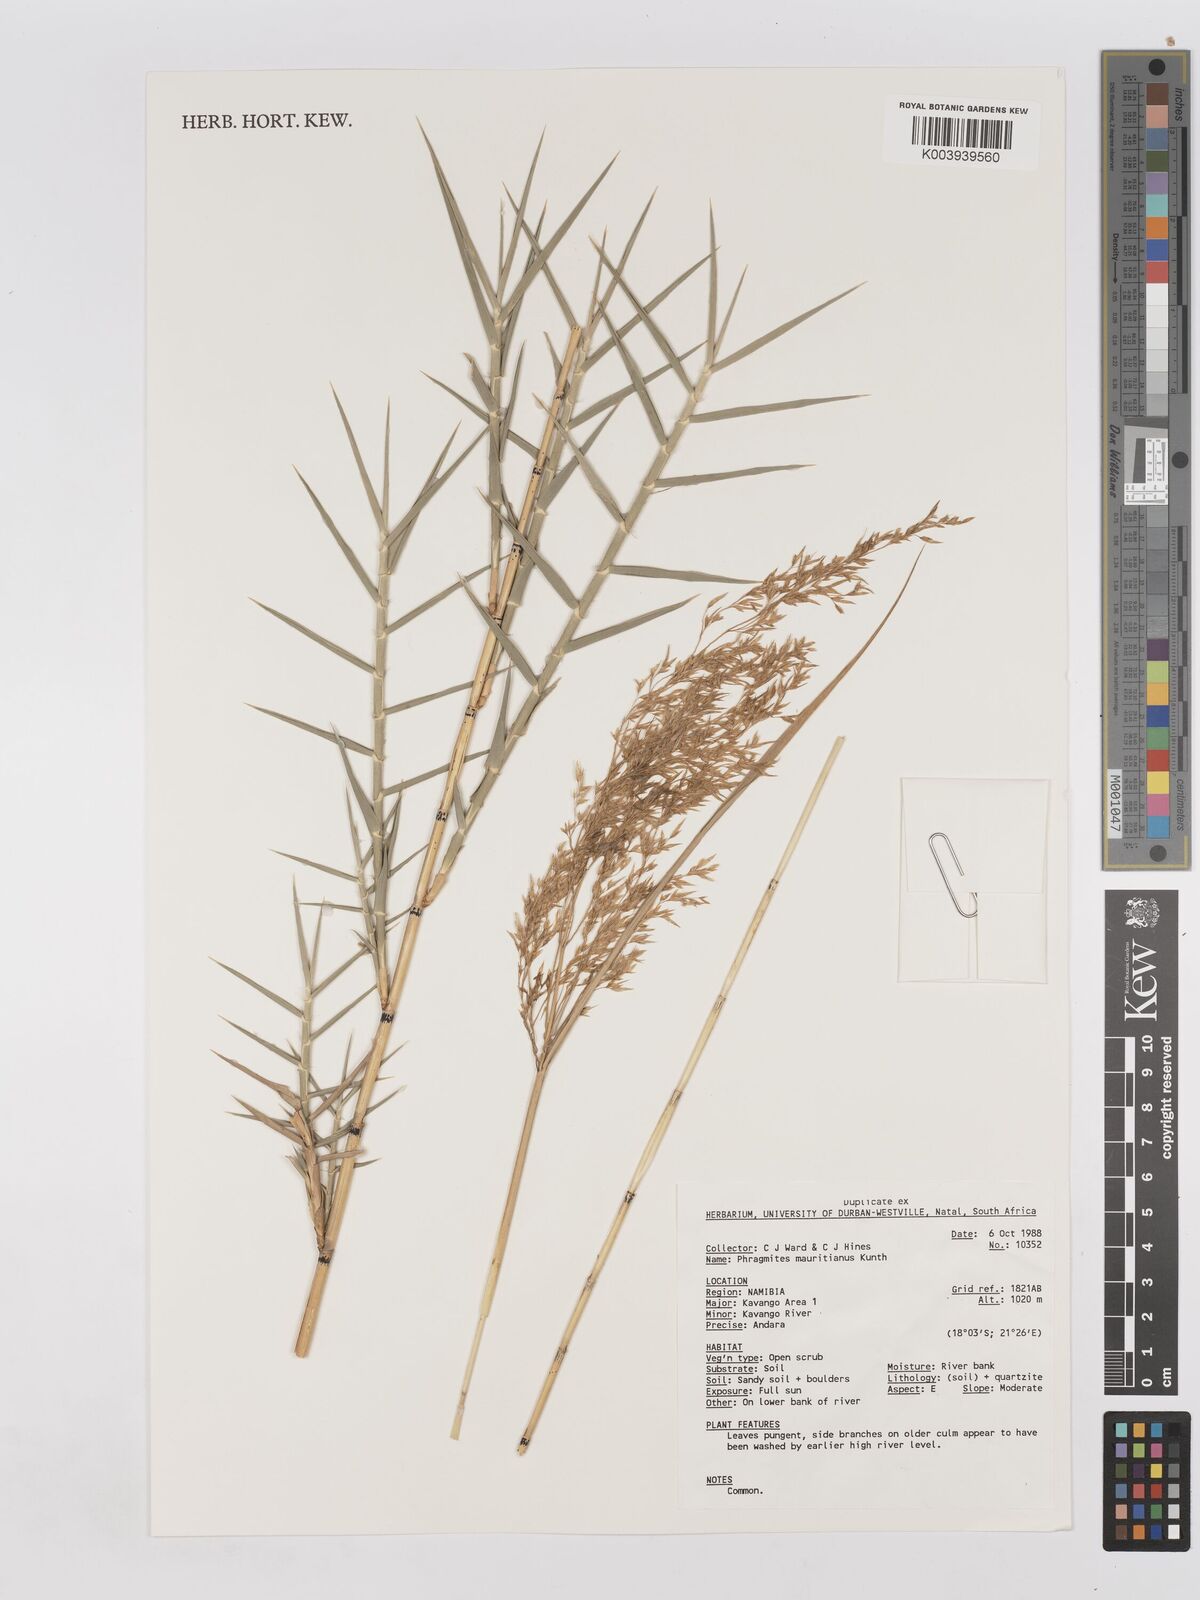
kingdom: Plantae
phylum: Tracheophyta
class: Liliopsida
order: Poales
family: Poaceae
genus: Phragmites
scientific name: Phragmites mauritianus
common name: Reed grass
